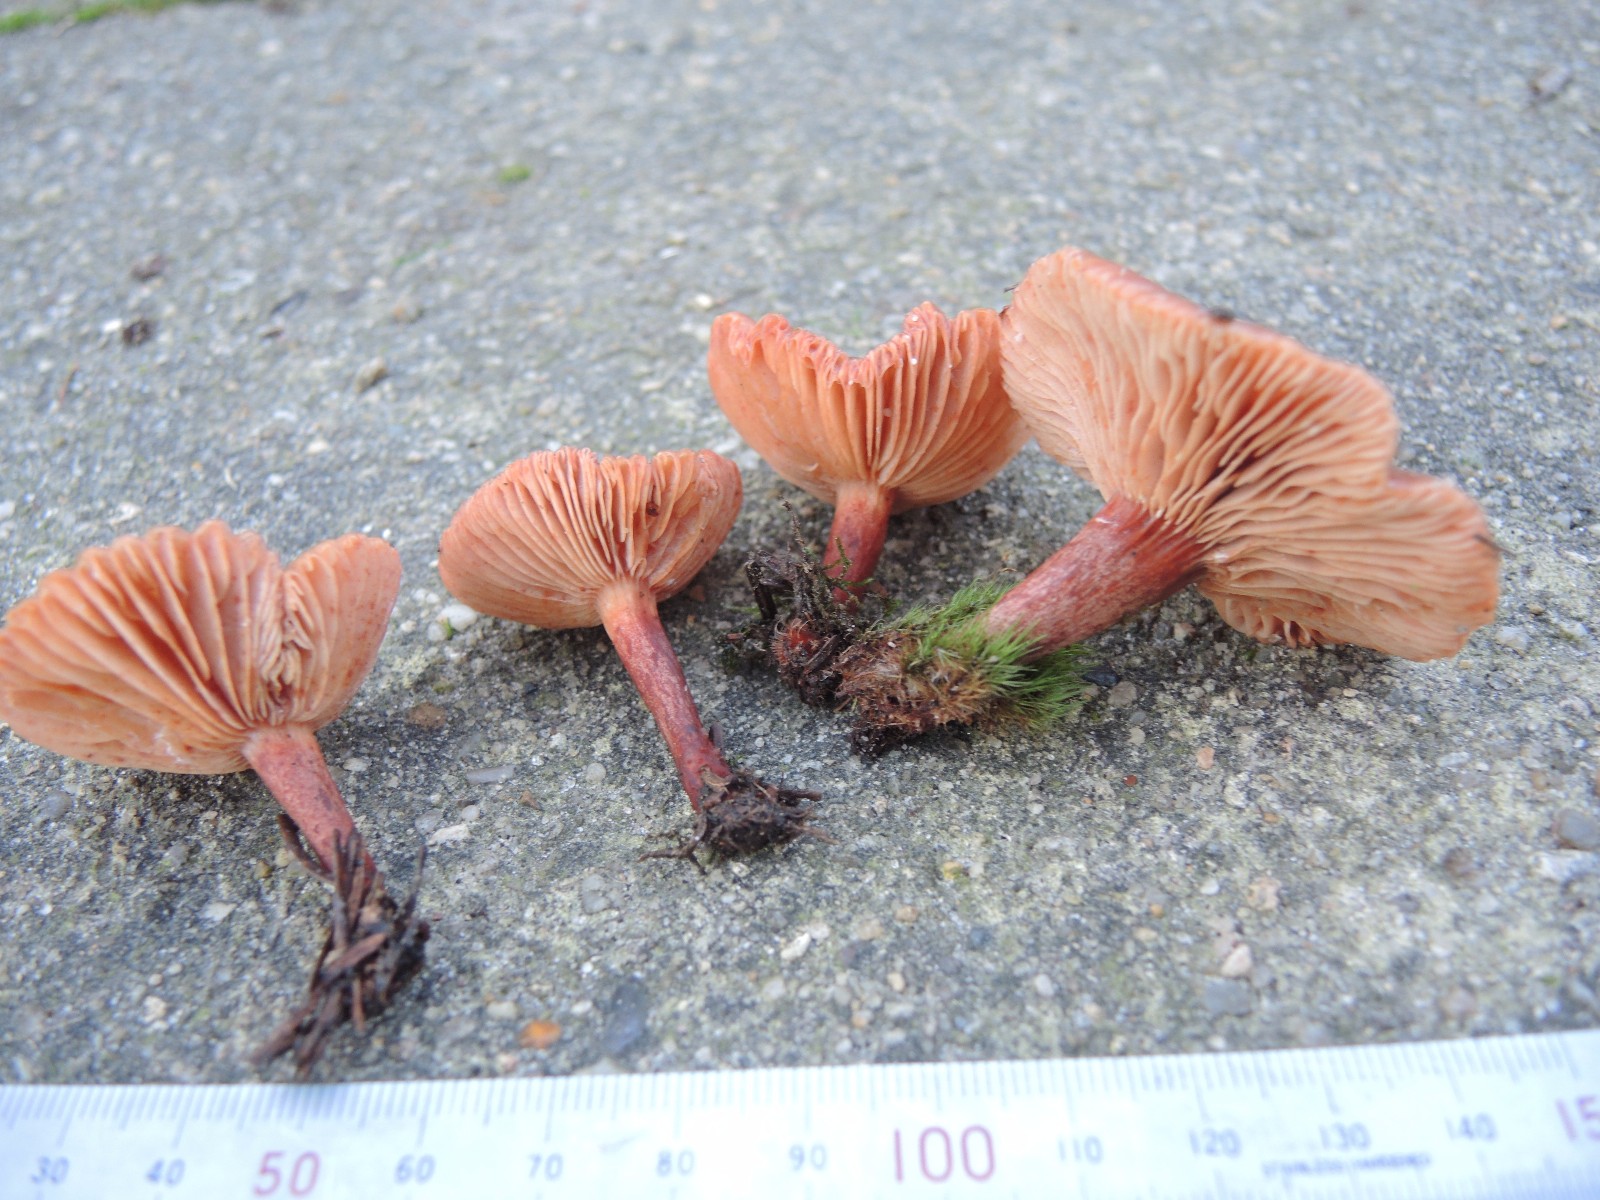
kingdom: Fungi
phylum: Basidiomycota
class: Agaricomycetes
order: Russulales
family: Russulaceae
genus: Lactarius
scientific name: Lactarius hepaticus
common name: leverbrun mælkehat
